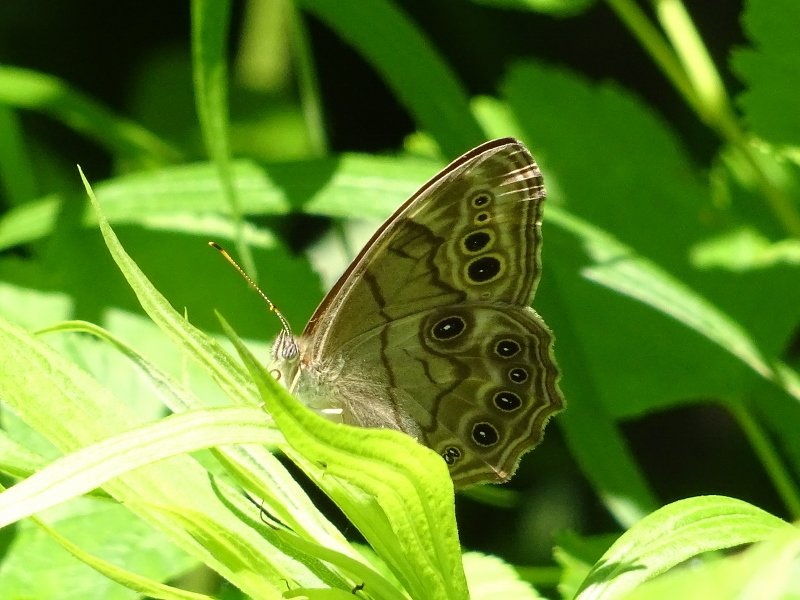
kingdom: Animalia
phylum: Arthropoda
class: Insecta
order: Lepidoptera
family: Nymphalidae
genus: Lethe
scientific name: Lethe anthedon
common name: Northern Pearly-Eye
